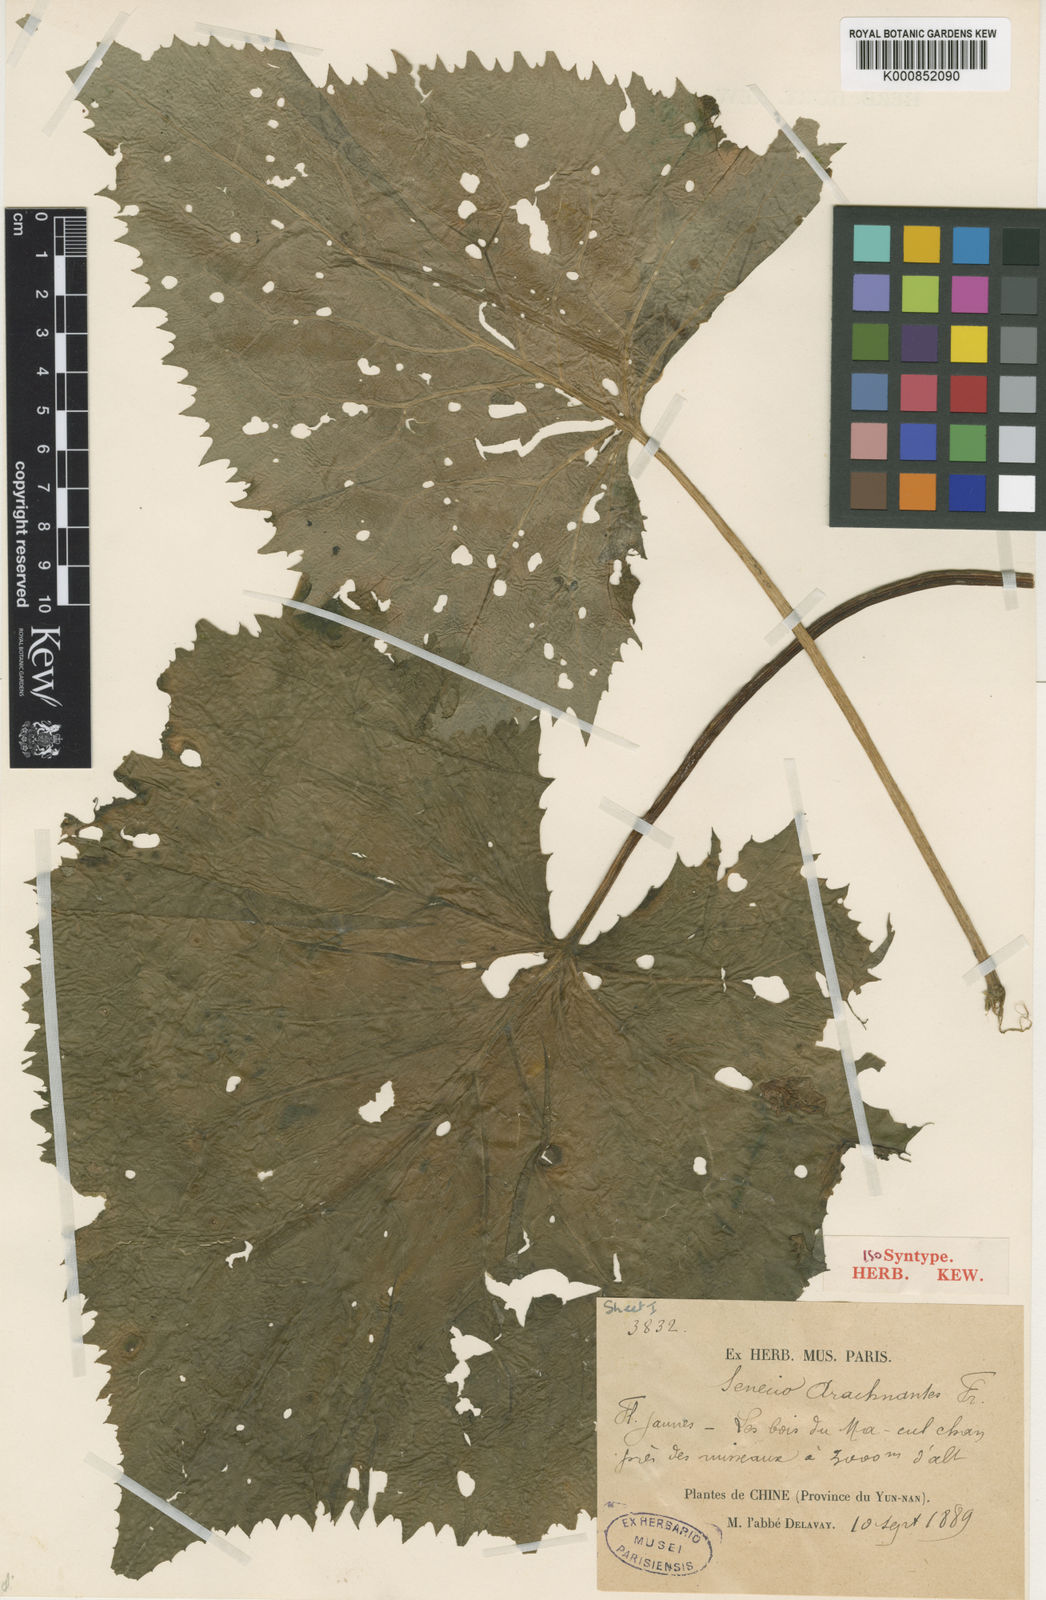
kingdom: Plantae
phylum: Tracheophyta
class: Magnoliopsida
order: Asterales
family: Asteraceae
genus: Senecio
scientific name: Senecio arachnanthus
